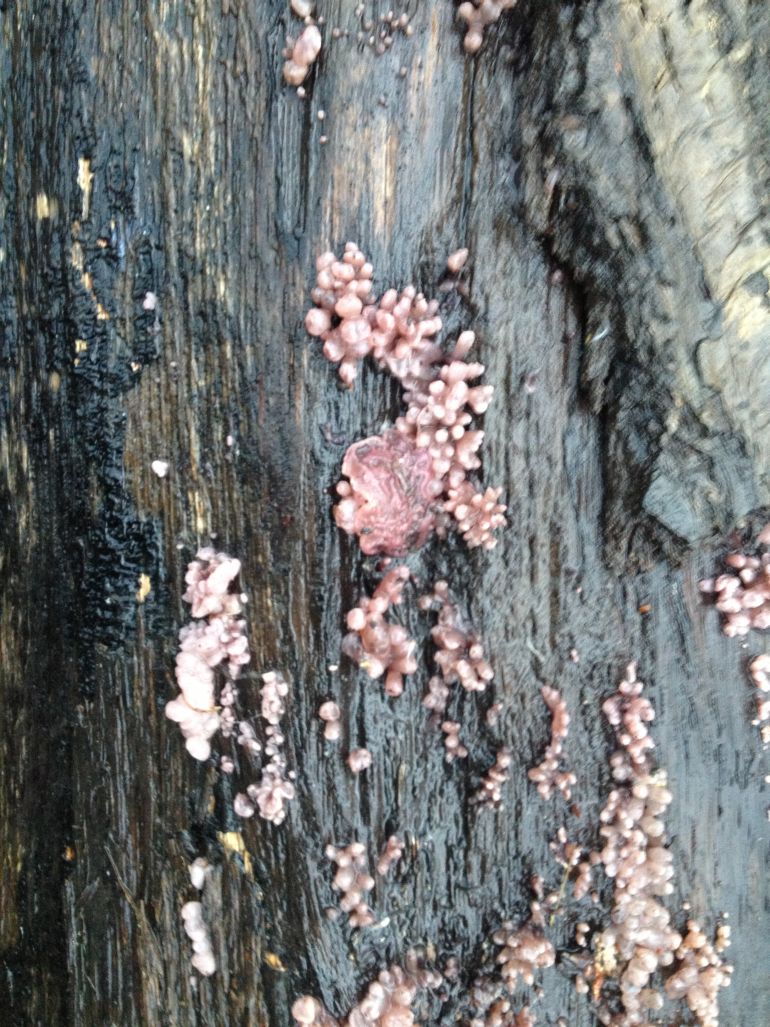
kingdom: Fungi
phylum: Ascomycota
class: Leotiomycetes
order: Helotiales
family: Gelatinodiscaceae
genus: Ascocoryne
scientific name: Ascocoryne sarcoides
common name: rødlilla sejskive
